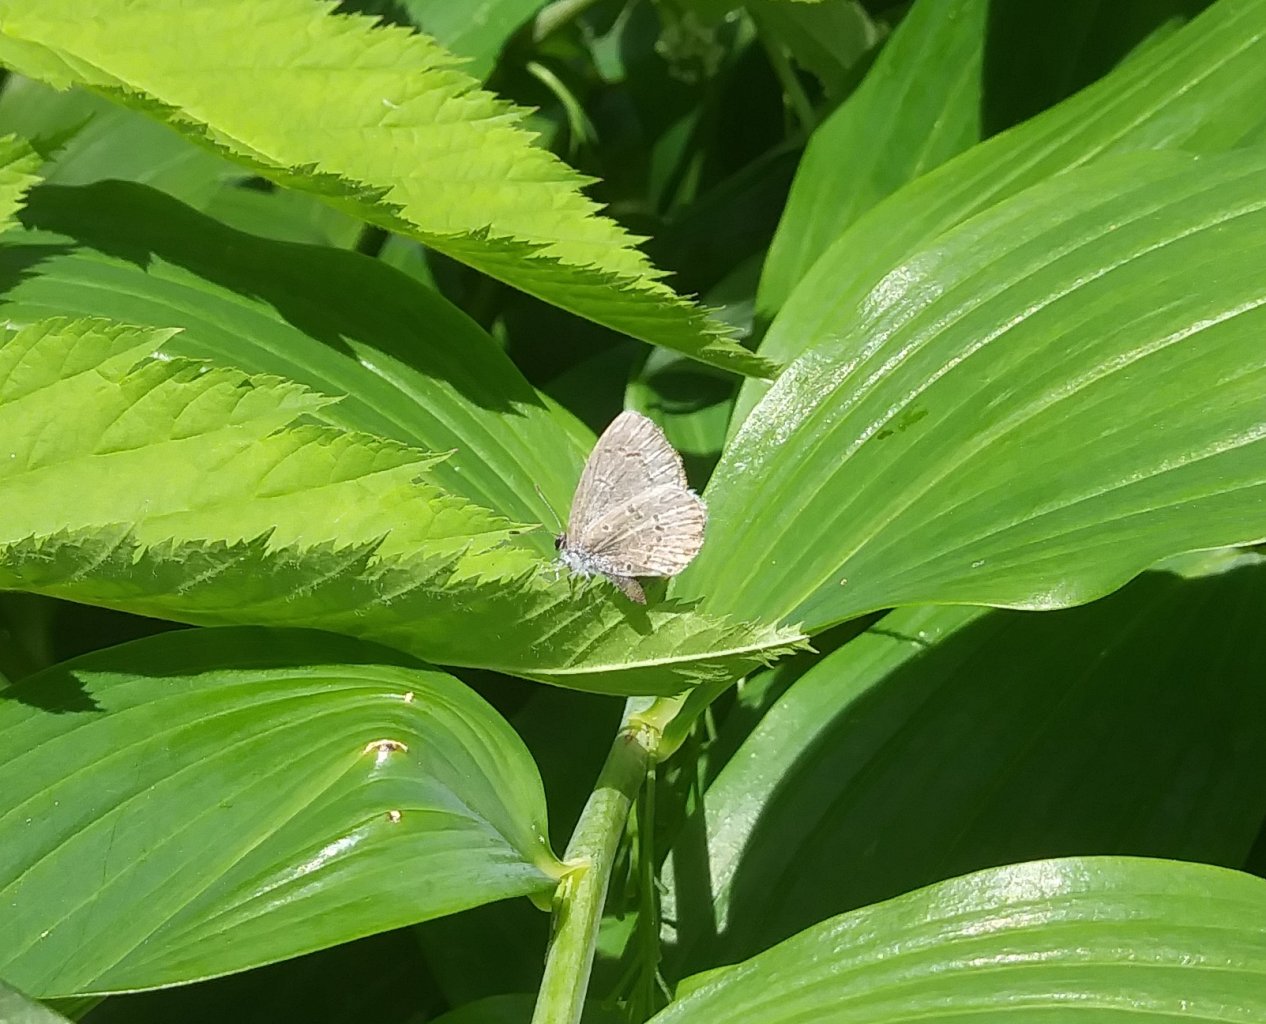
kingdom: Animalia
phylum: Arthropoda
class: Insecta
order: Lepidoptera
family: Lycaenidae
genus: Celastrina
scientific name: Celastrina lucia
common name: Northern Spring Azure
